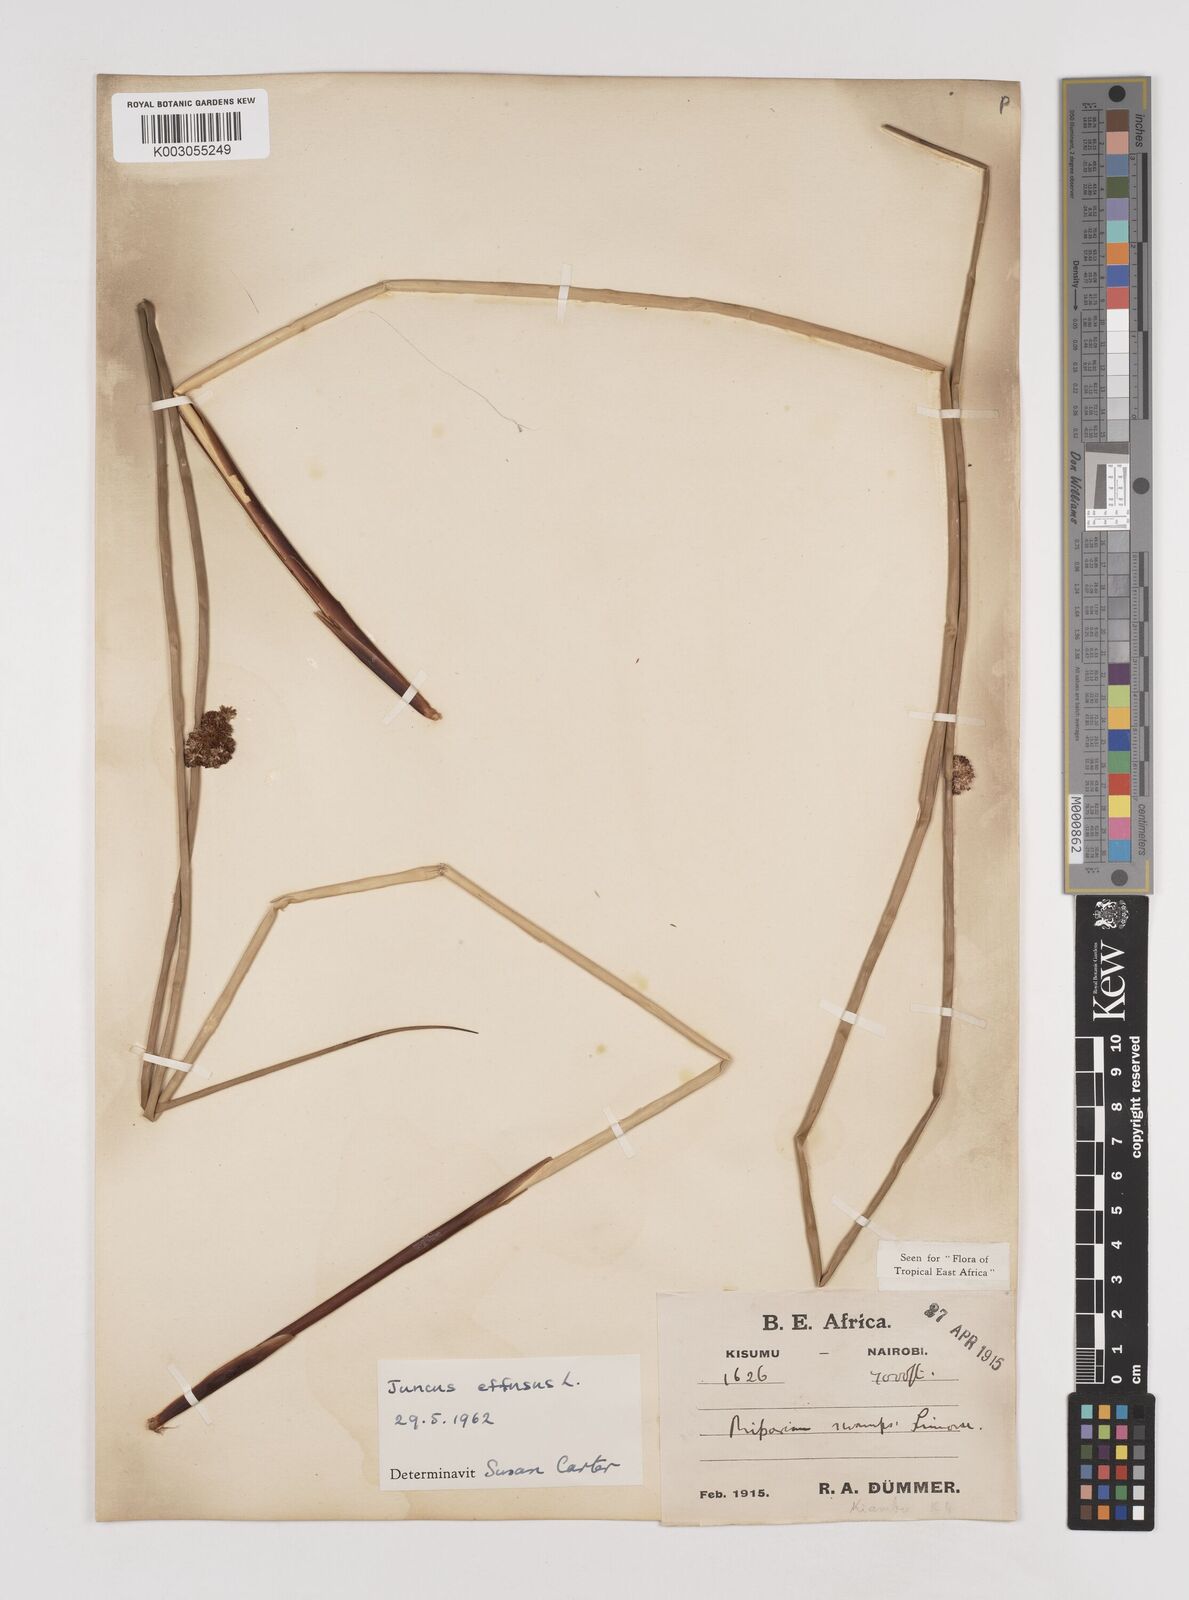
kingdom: Plantae
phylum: Tracheophyta
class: Liliopsida
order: Poales
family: Juncaceae
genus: Juncus
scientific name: Juncus effusus
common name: Soft rush
